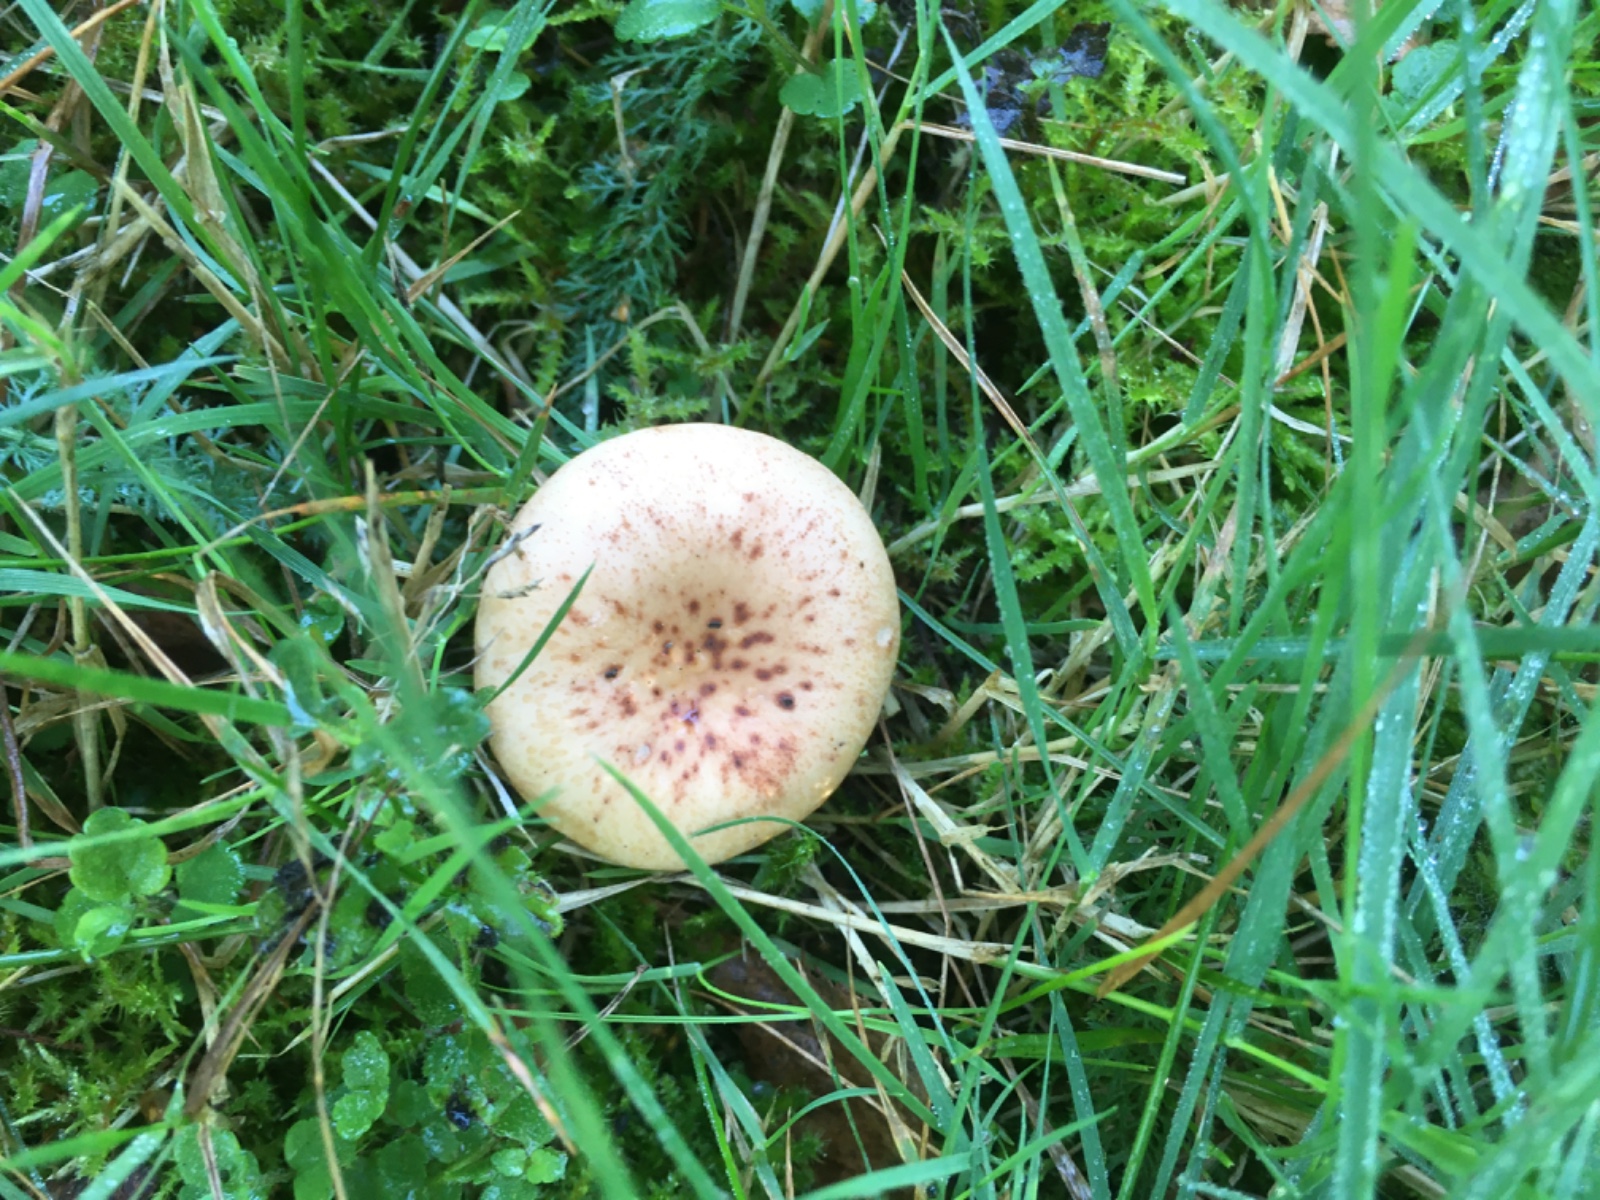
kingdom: Fungi
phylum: Basidiomycota
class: Agaricomycetes
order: Agaricales
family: Tricholomataceae
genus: Paralepista
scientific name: Paralepista
